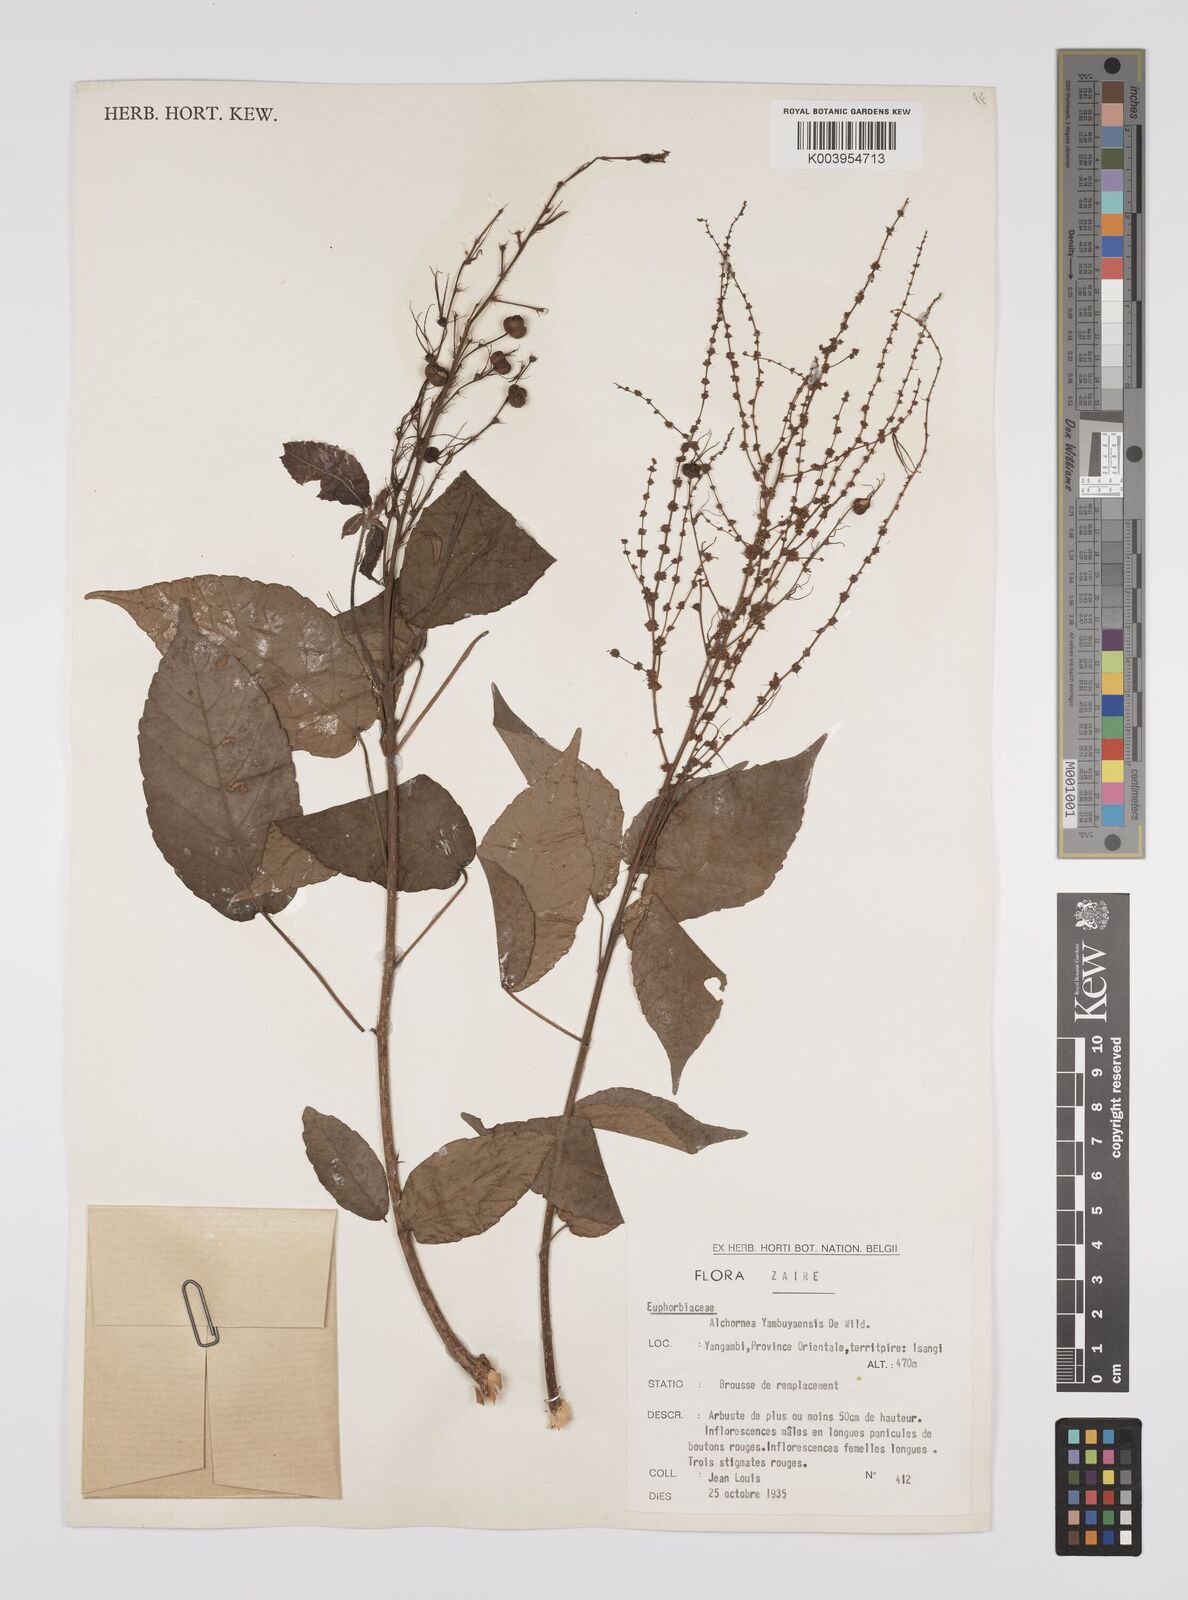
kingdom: Plantae
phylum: Tracheophyta
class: Magnoliopsida
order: Malpighiales
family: Euphorbiaceae
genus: Alchornea
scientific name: Alchornea yambuyaensis
